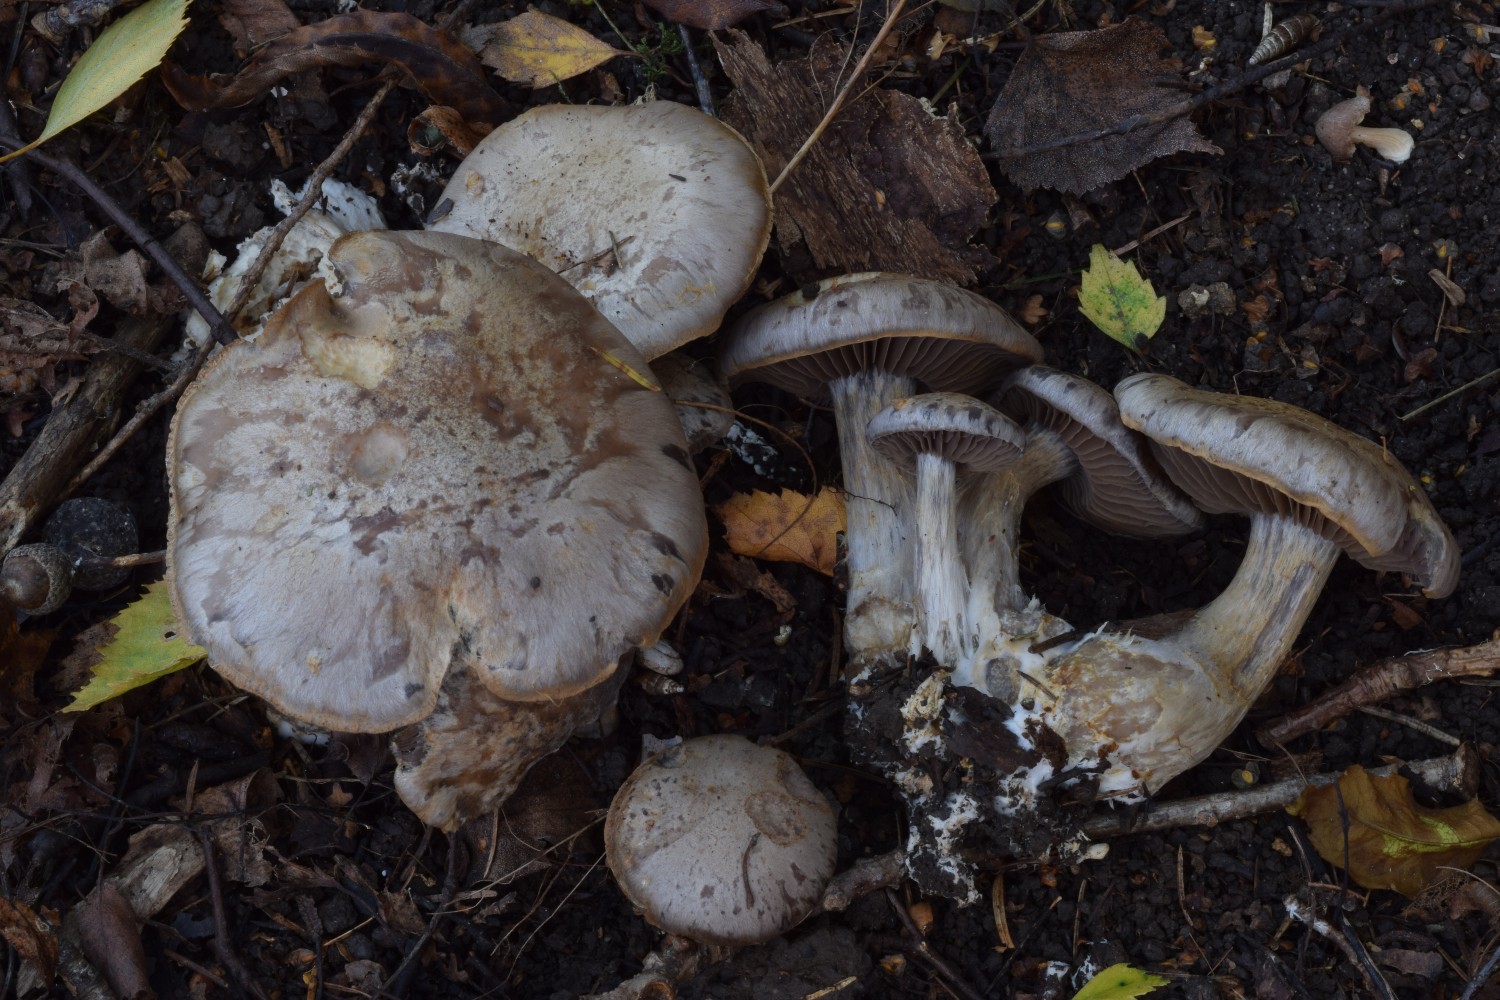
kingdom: Fungi
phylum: Basidiomycota
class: Agaricomycetes
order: Agaricales
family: Cortinariaceae
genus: Cortinarius
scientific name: Cortinarius
